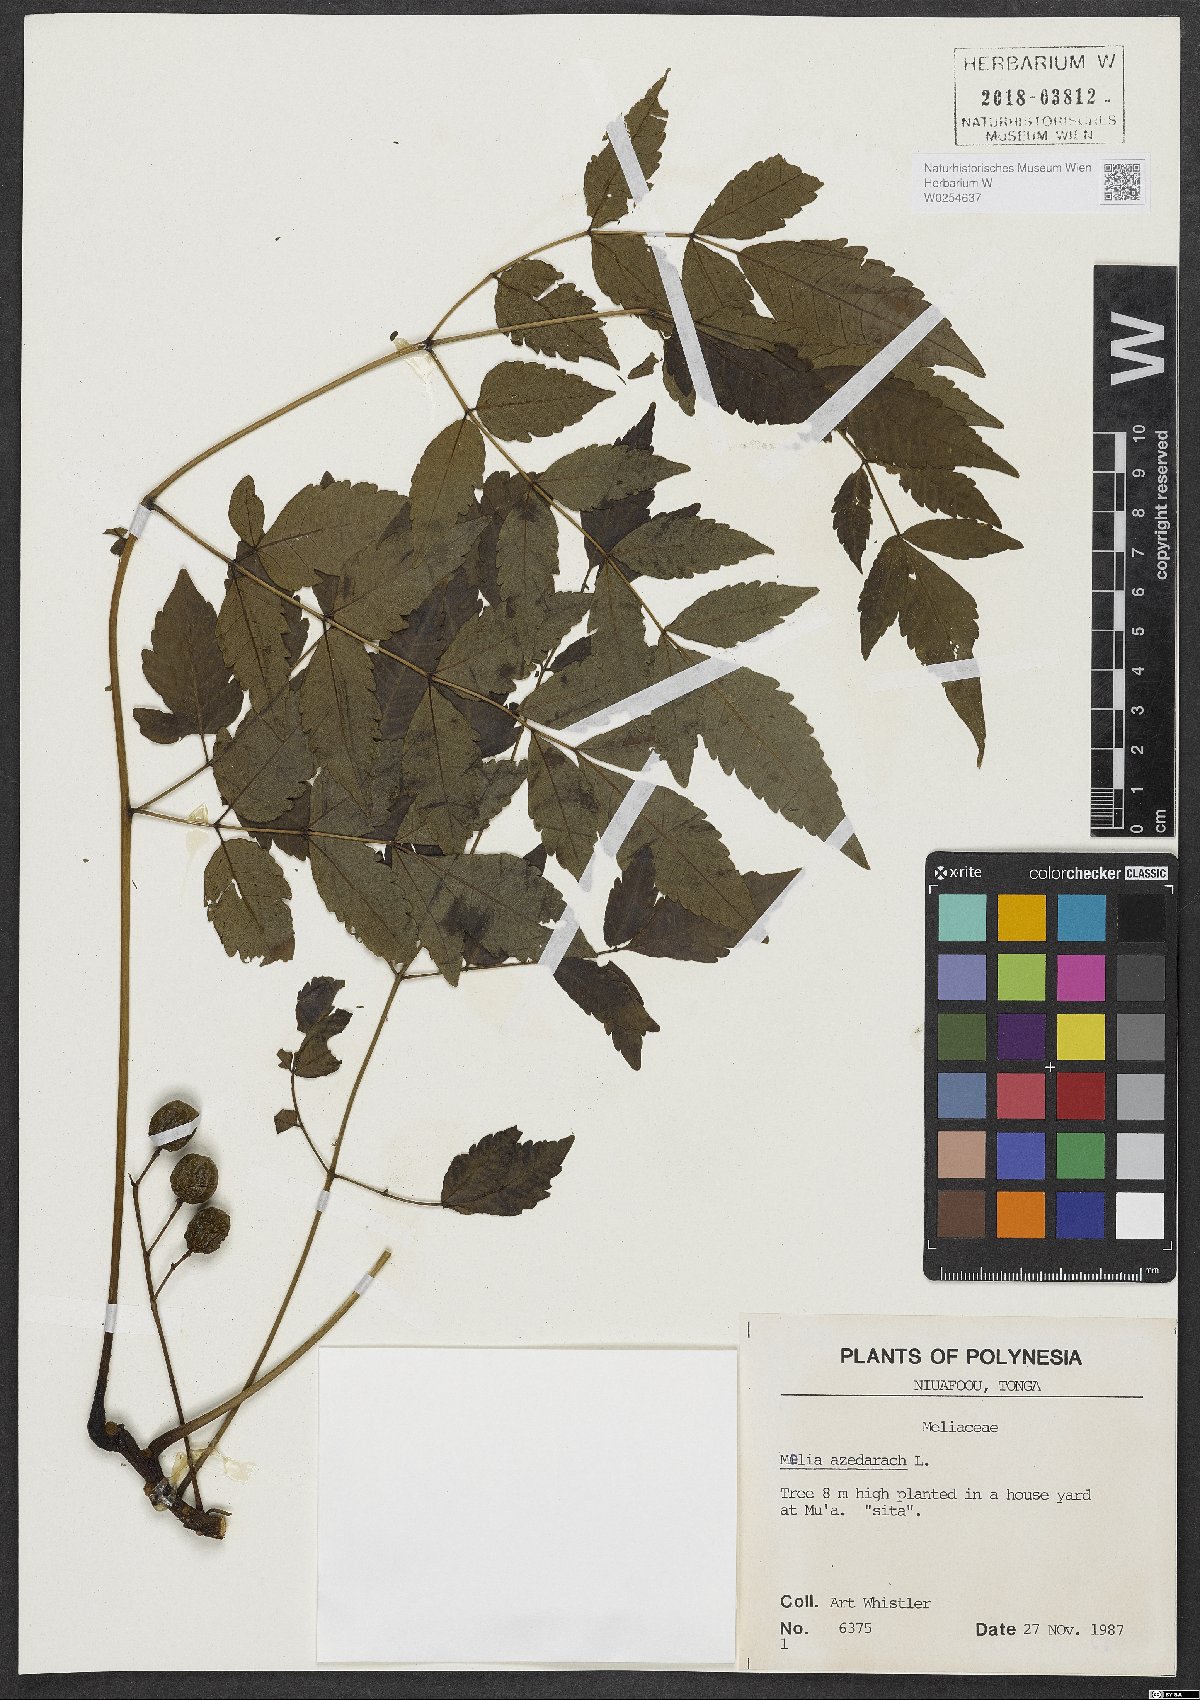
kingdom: Plantae
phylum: Tracheophyta
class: Magnoliopsida
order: Sapindales
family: Meliaceae
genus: Melia
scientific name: Melia azedarach
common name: Chinaberrytree
